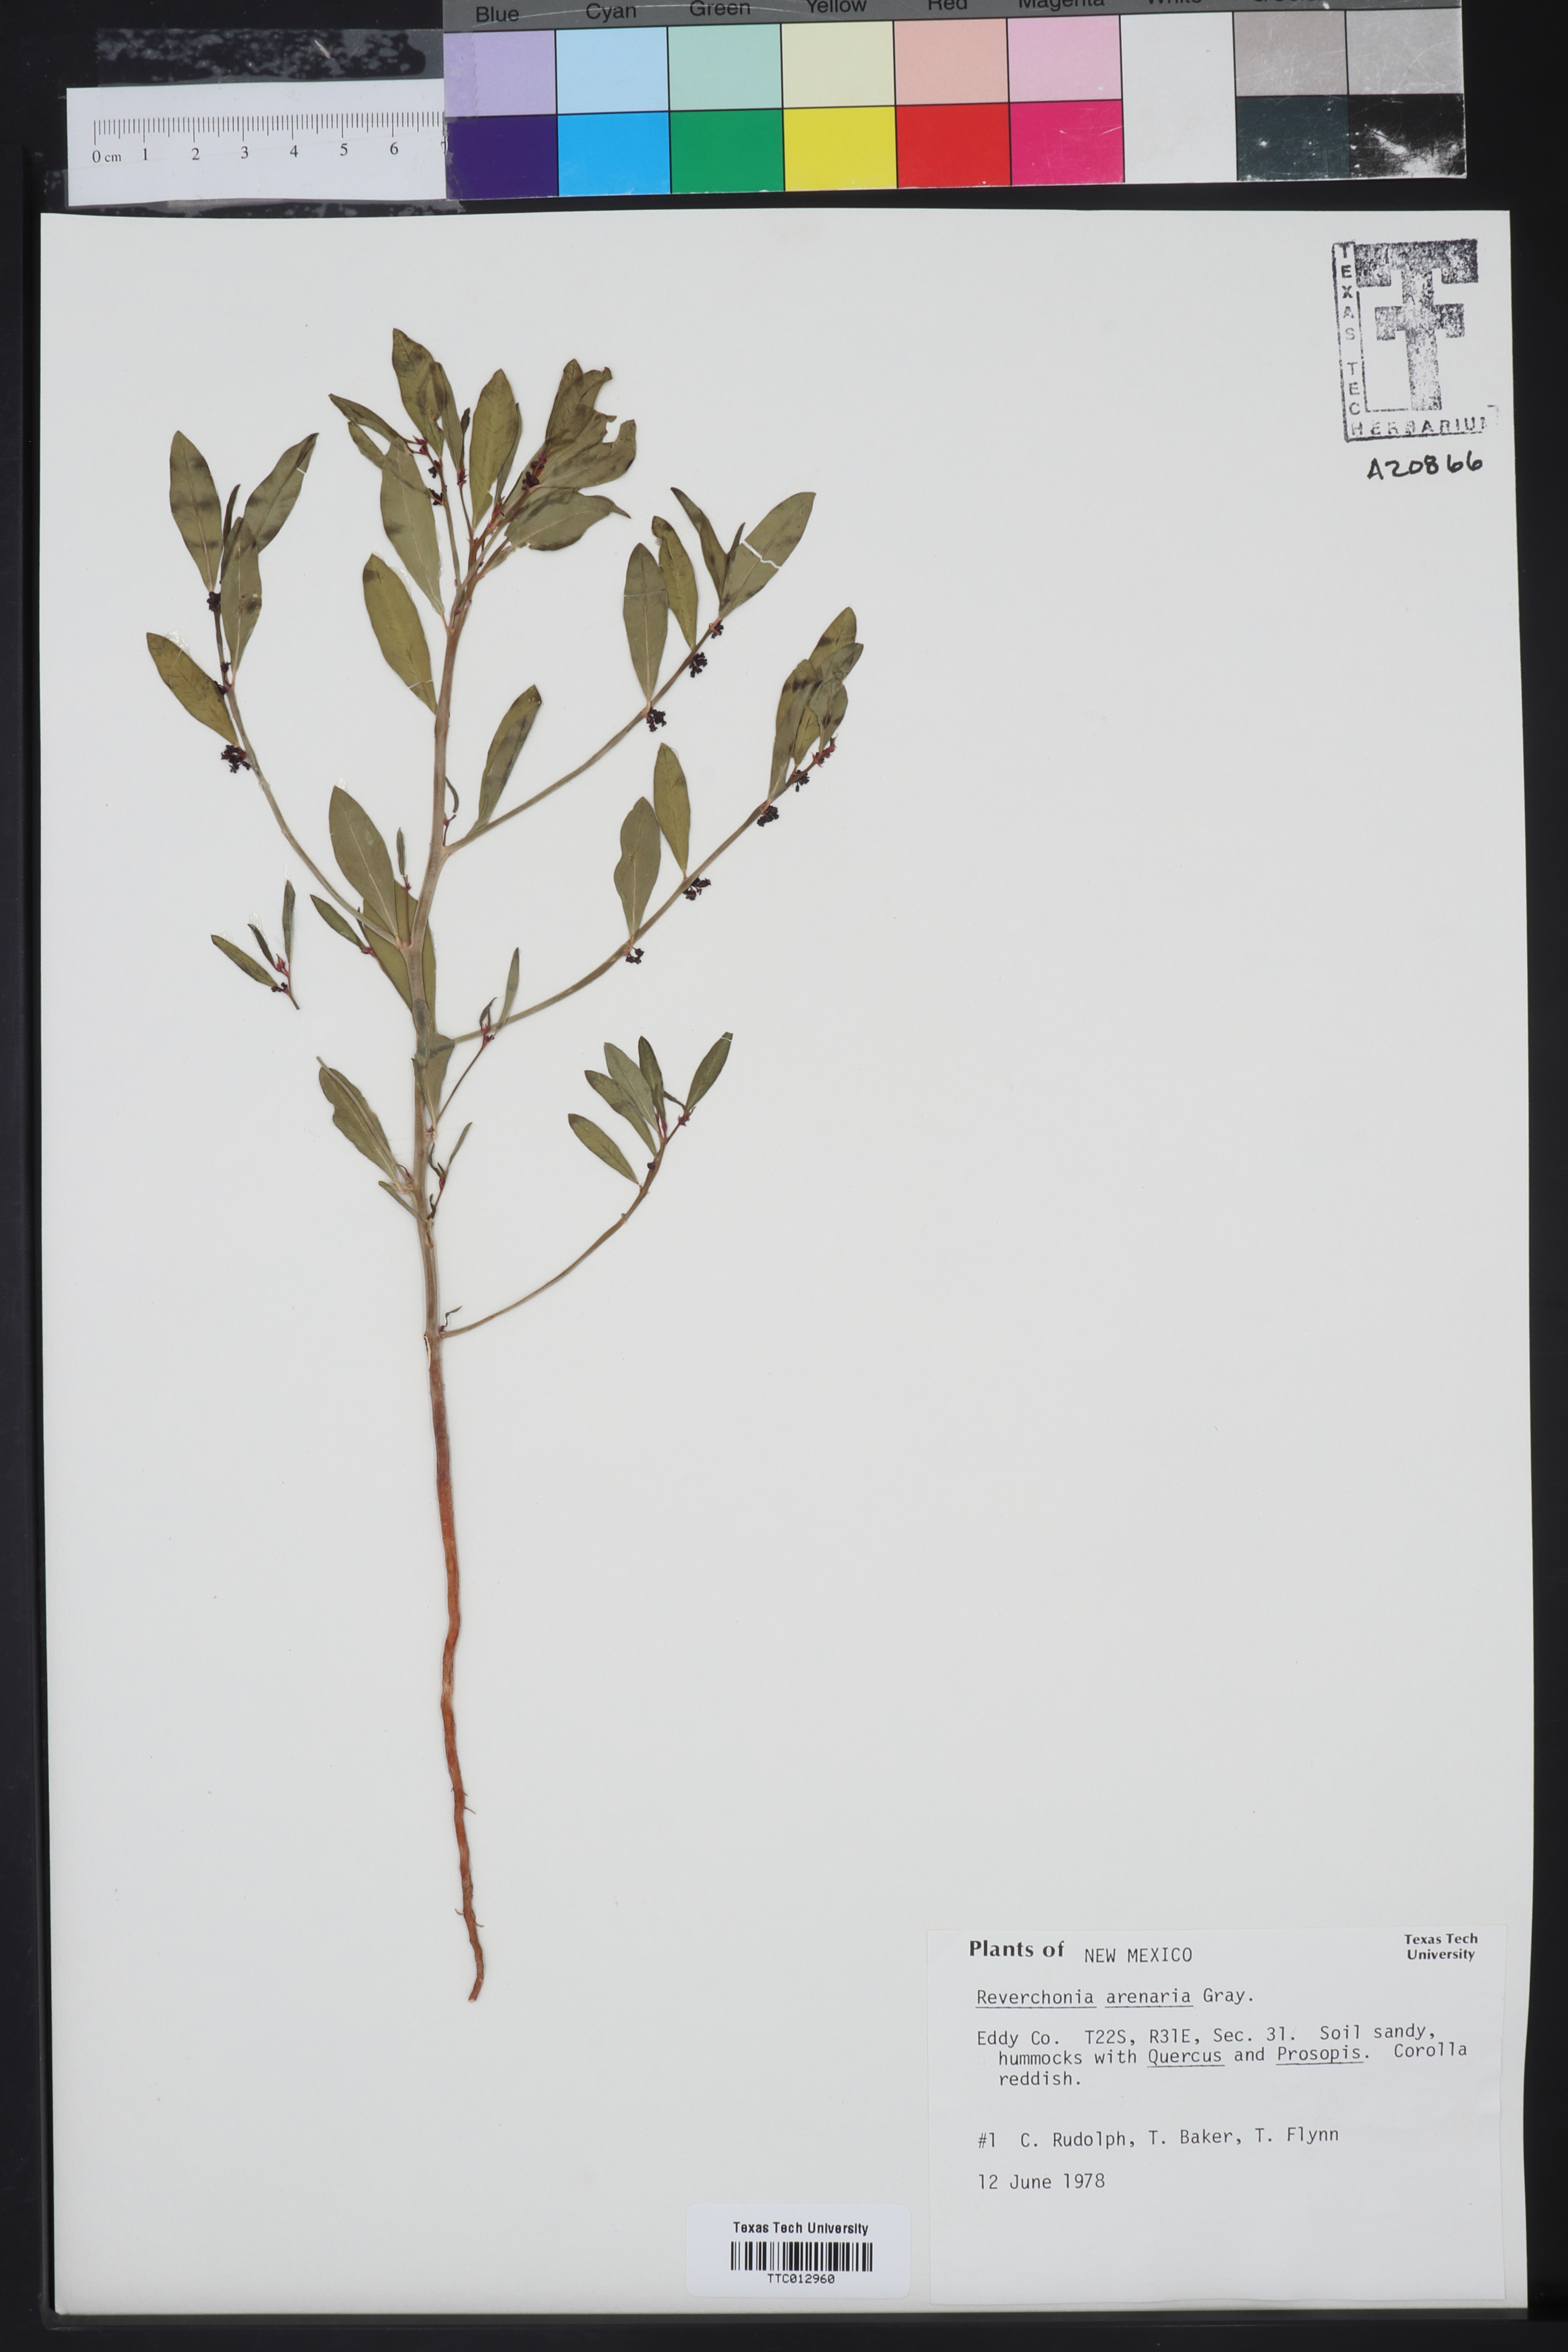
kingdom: Plantae
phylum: Tracheophyta
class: Magnoliopsida
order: Malpighiales
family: Phyllanthaceae
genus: Phyllanthus
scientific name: Phyllanthus warnockii
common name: Sand reverchonia
